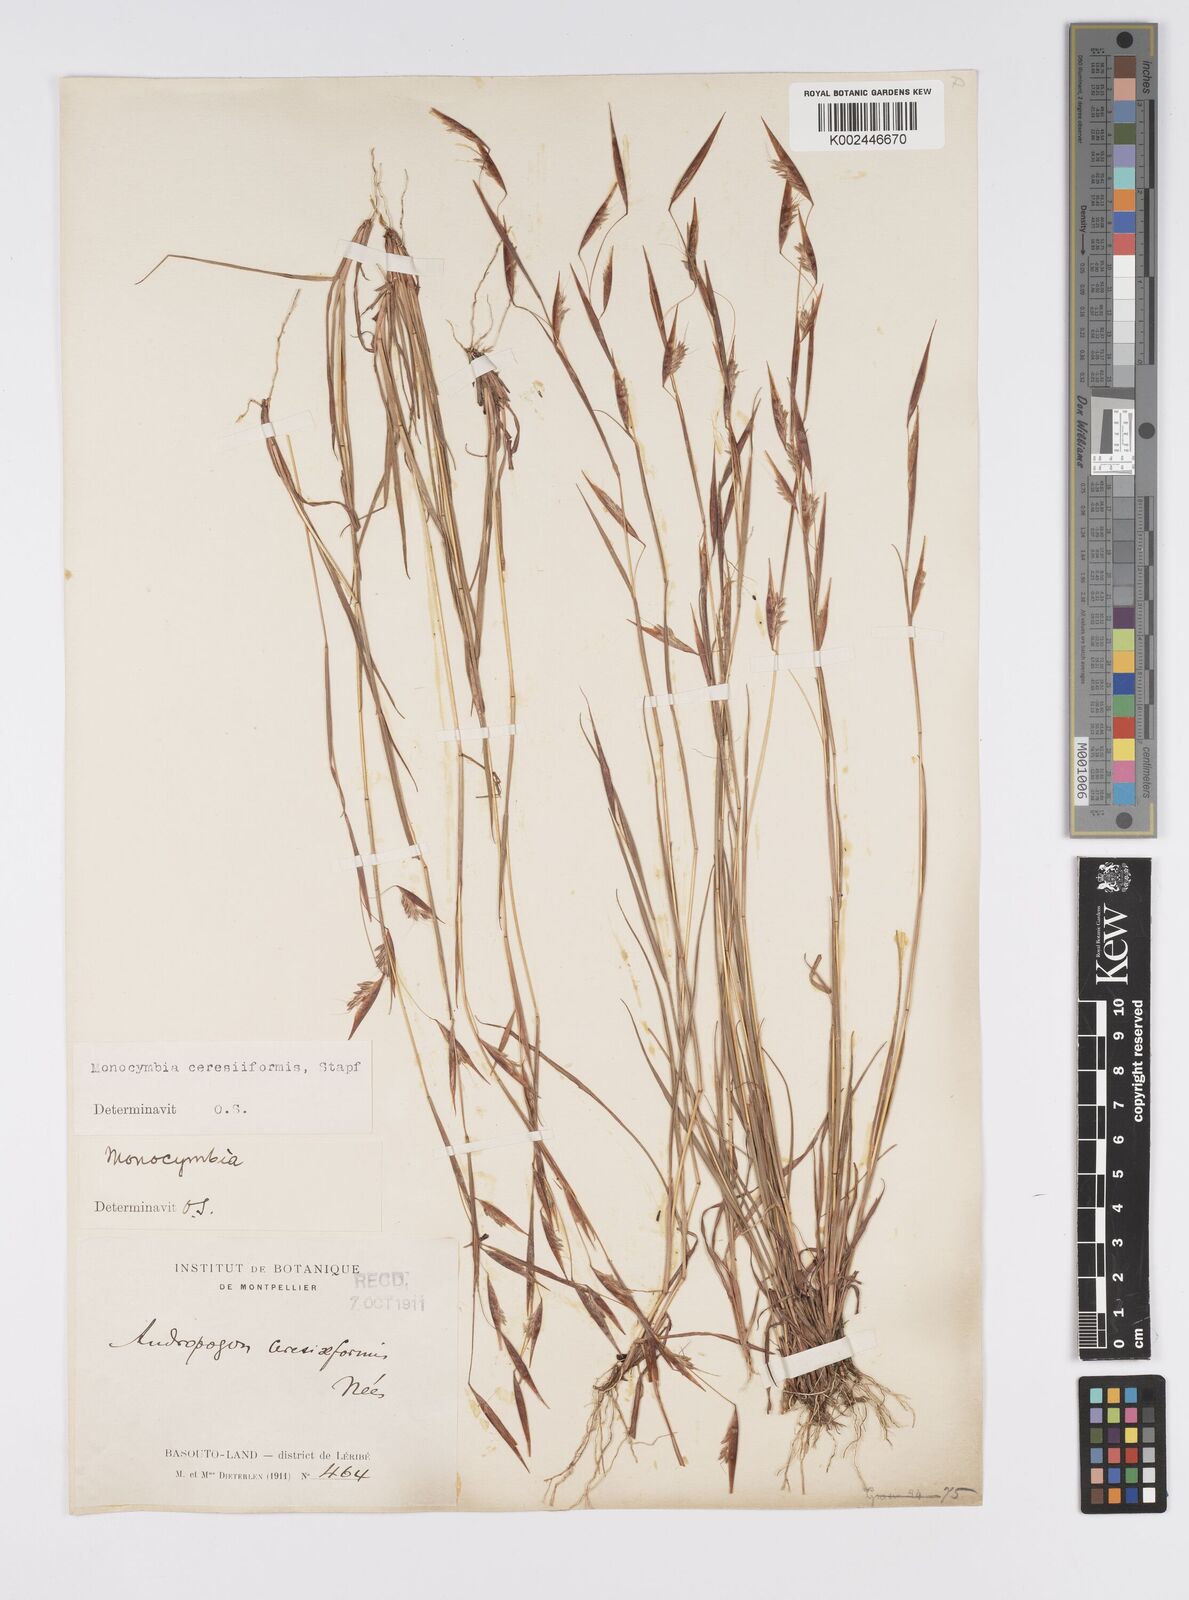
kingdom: Plantae
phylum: Tracheophyta
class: Liliopsida
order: Poales
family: Poaceae
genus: Monocymbium
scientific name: Monocymbium ceresiiforme
